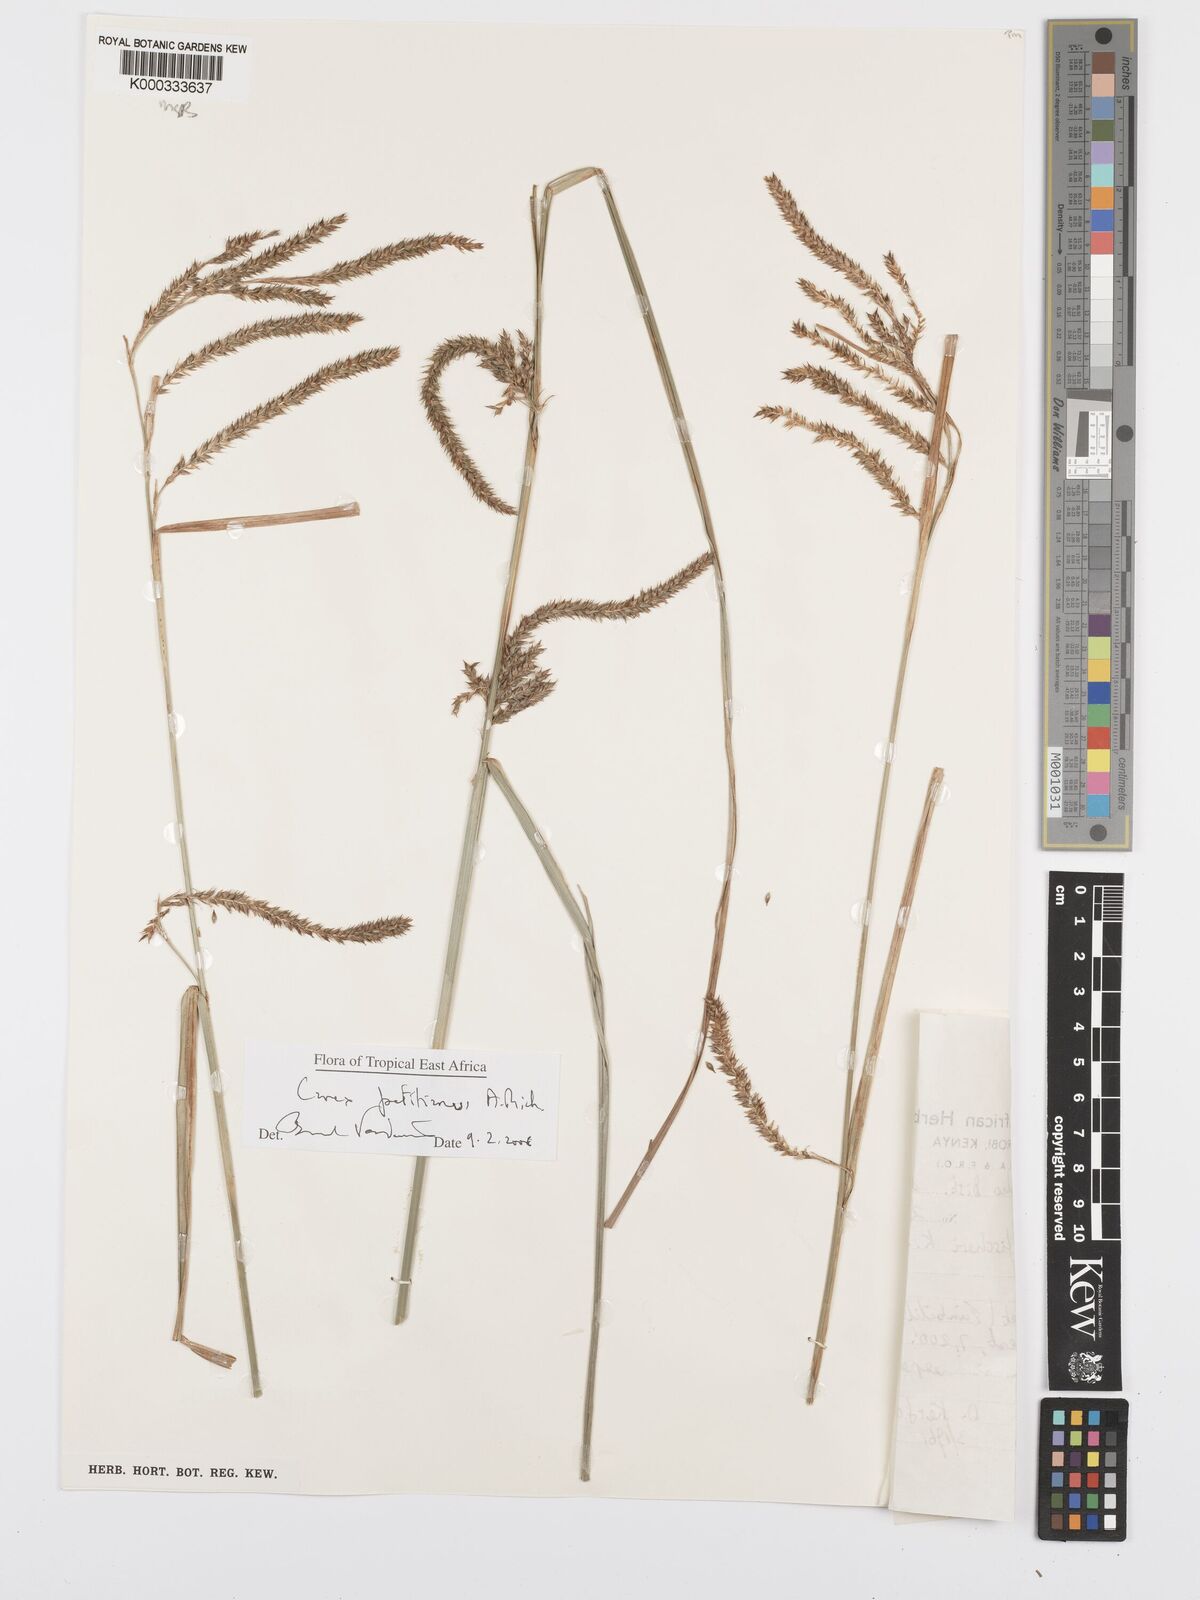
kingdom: Plantae
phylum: Tracheophyta
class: Liliopsida
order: Poales
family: Cyperaceae
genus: Carex
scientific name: Carex petitiana
